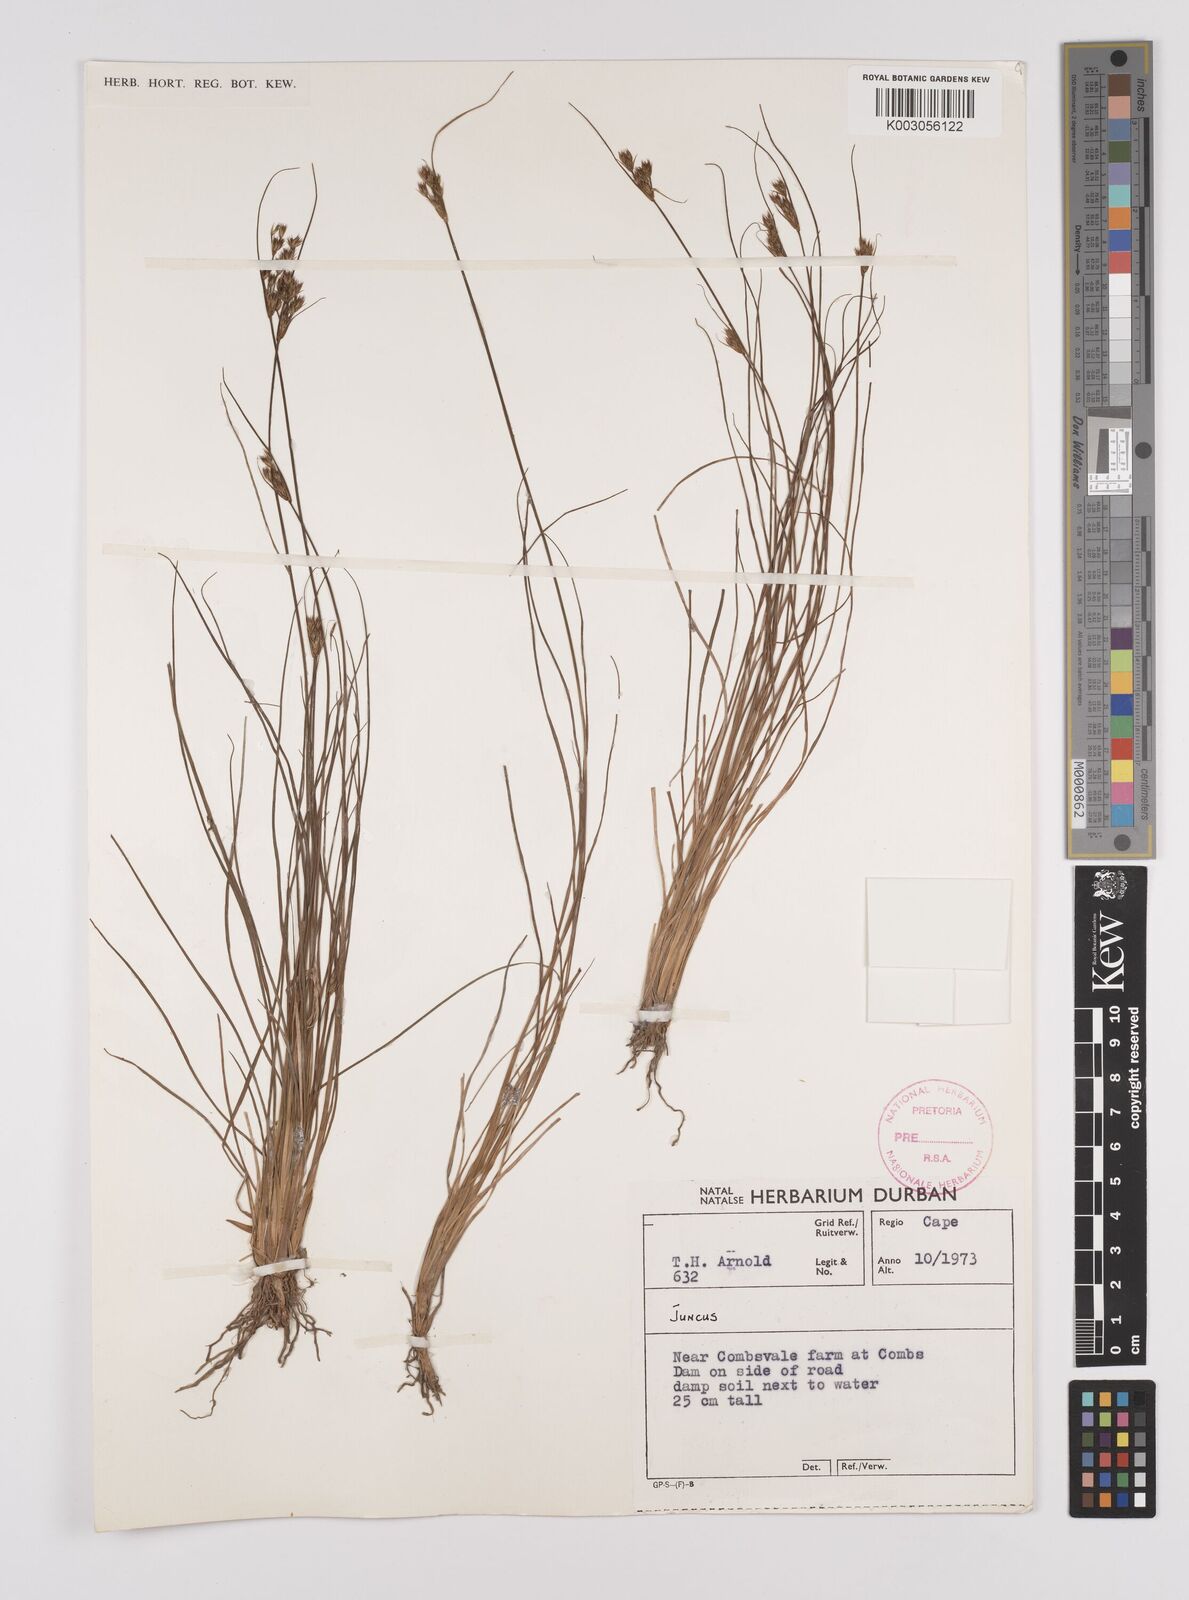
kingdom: Plantae
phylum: Tracheophyta
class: Liliopsida
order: Poales
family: Juncaceae
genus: Juncus
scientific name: Juncus
